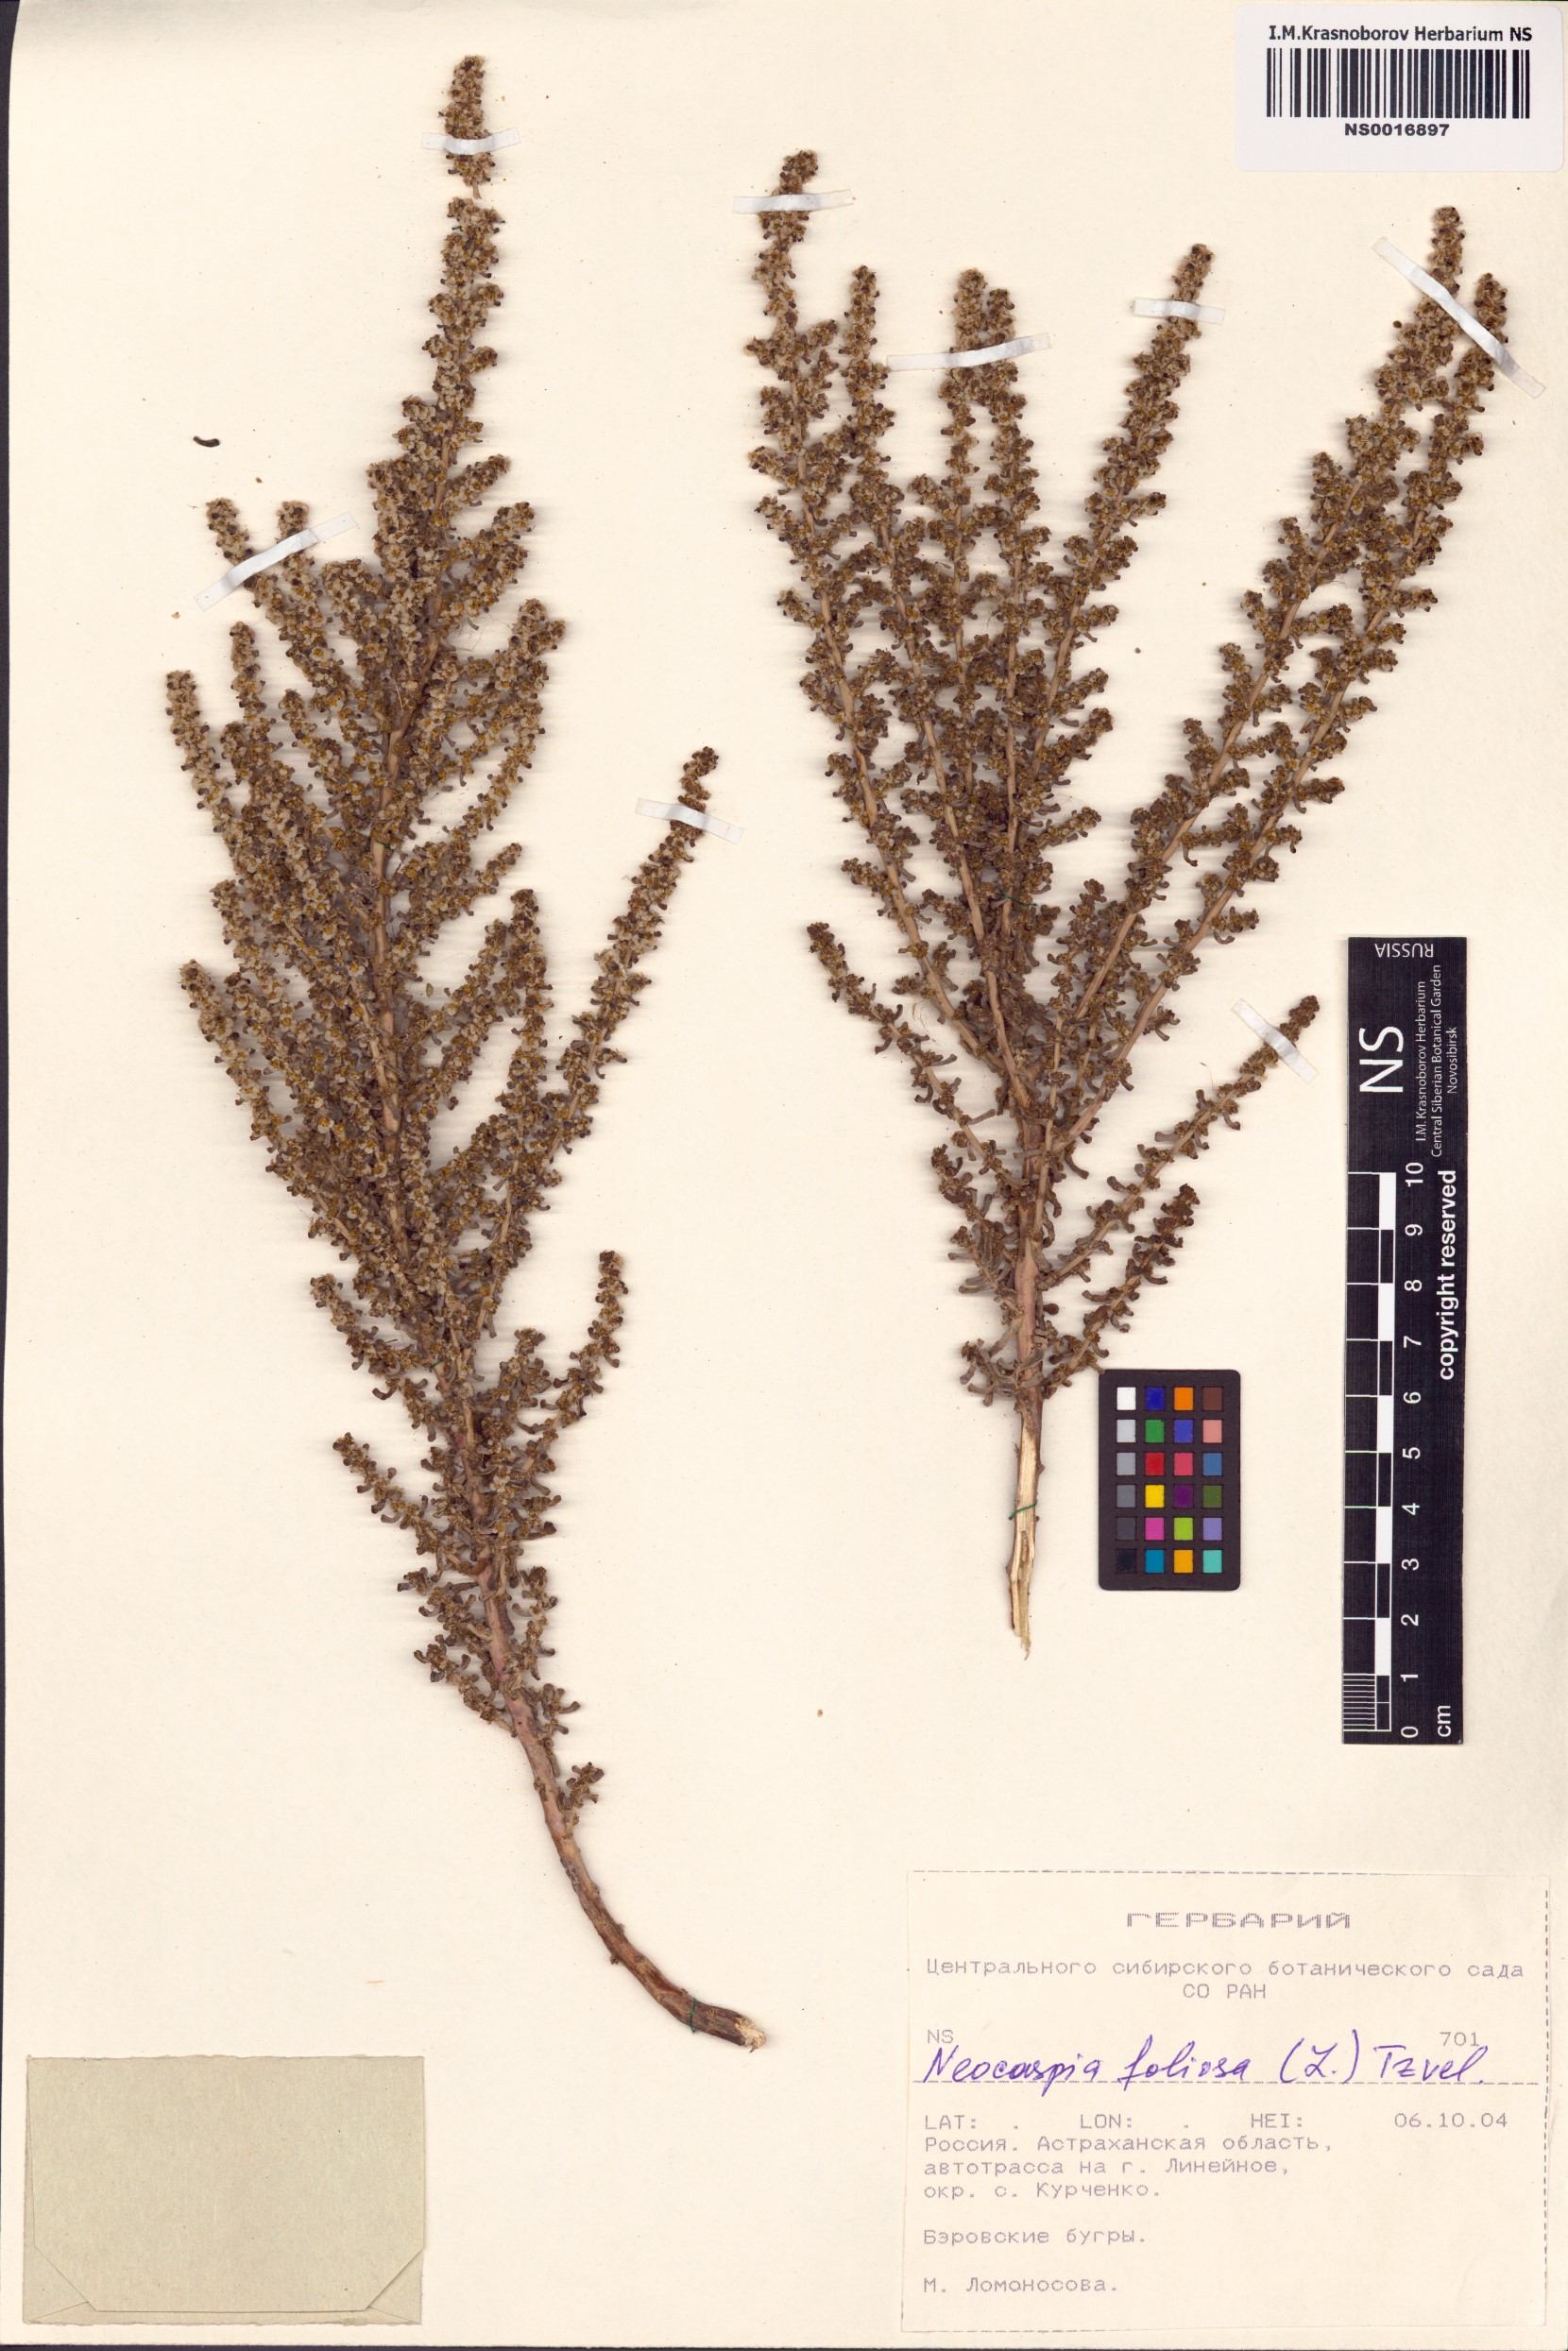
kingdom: Plantae
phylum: Tracheophyta
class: Magnoliopsida
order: Caryophyllales
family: Amaranthaceae
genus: Soda
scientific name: Soda foliosa
